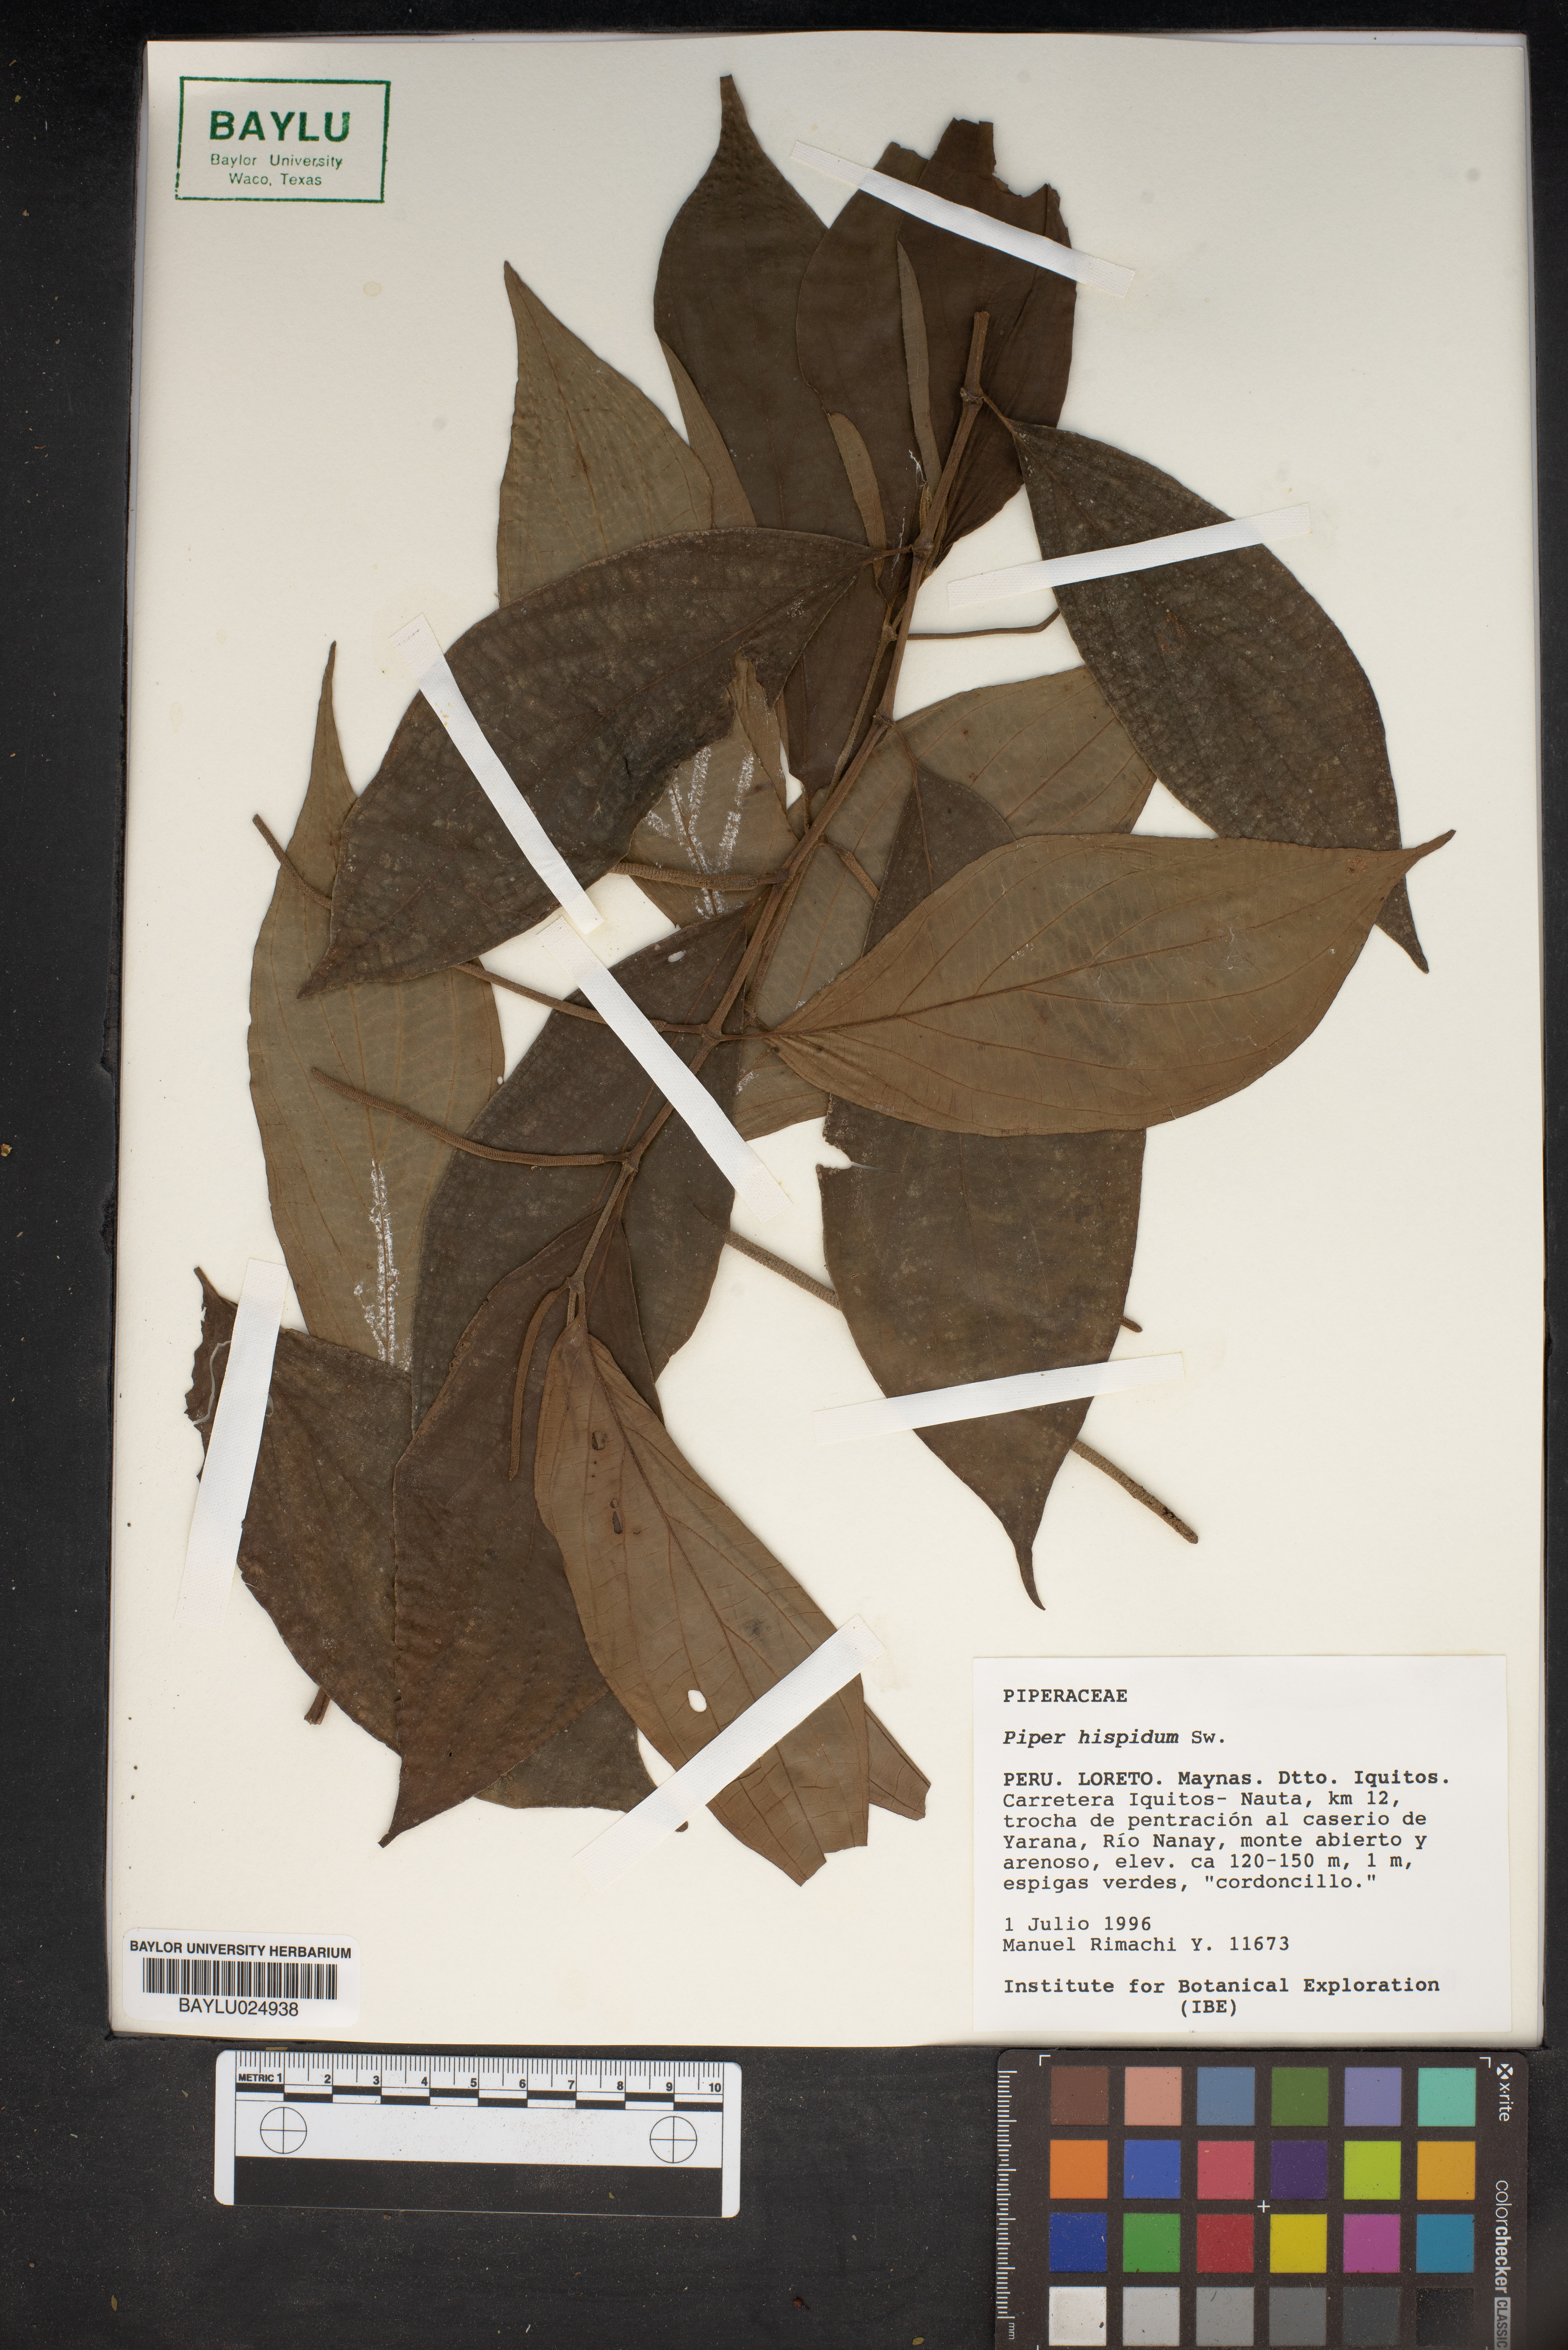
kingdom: Plantae
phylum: Tracheophyta
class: Magnoliopsida
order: Piperales
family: Piperaceae
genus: Piper
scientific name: Piper hispidum
